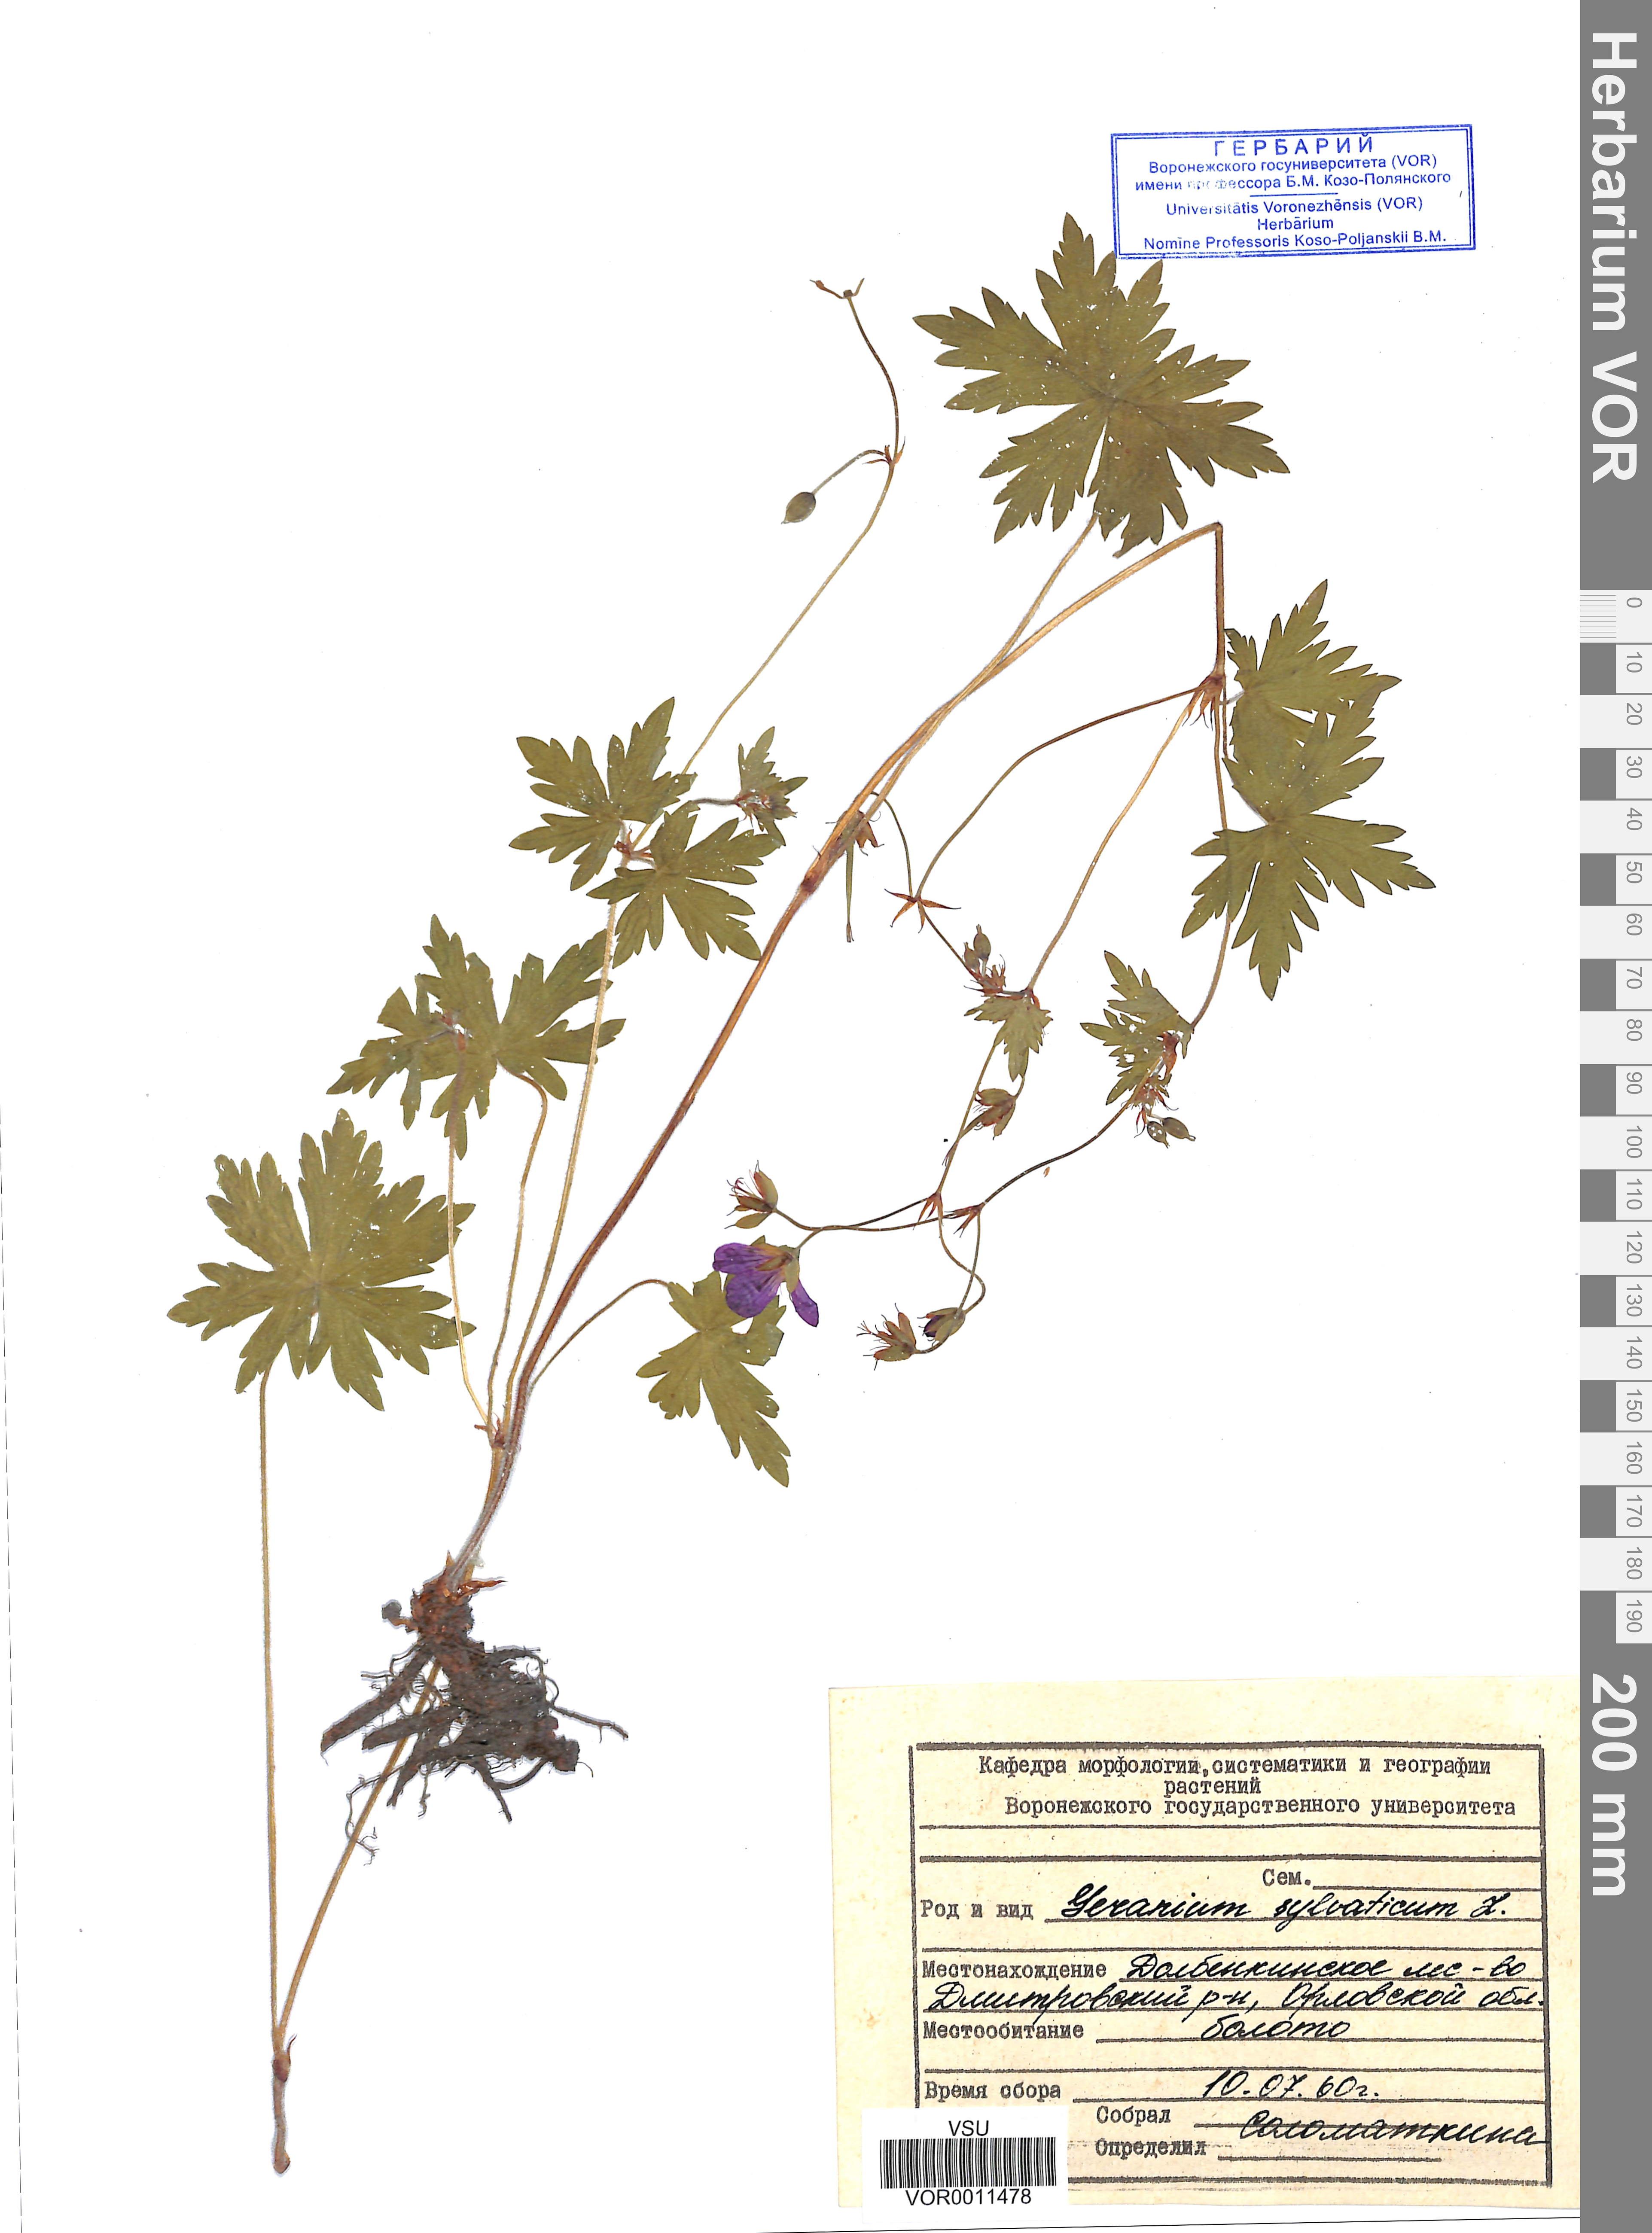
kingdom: Plantae
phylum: Tracheophyta
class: Magnoliopsida
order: Geraniales
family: Geraniaceae
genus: Geranium
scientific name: Geranium sibiricum
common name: Siberian crane's-bill
